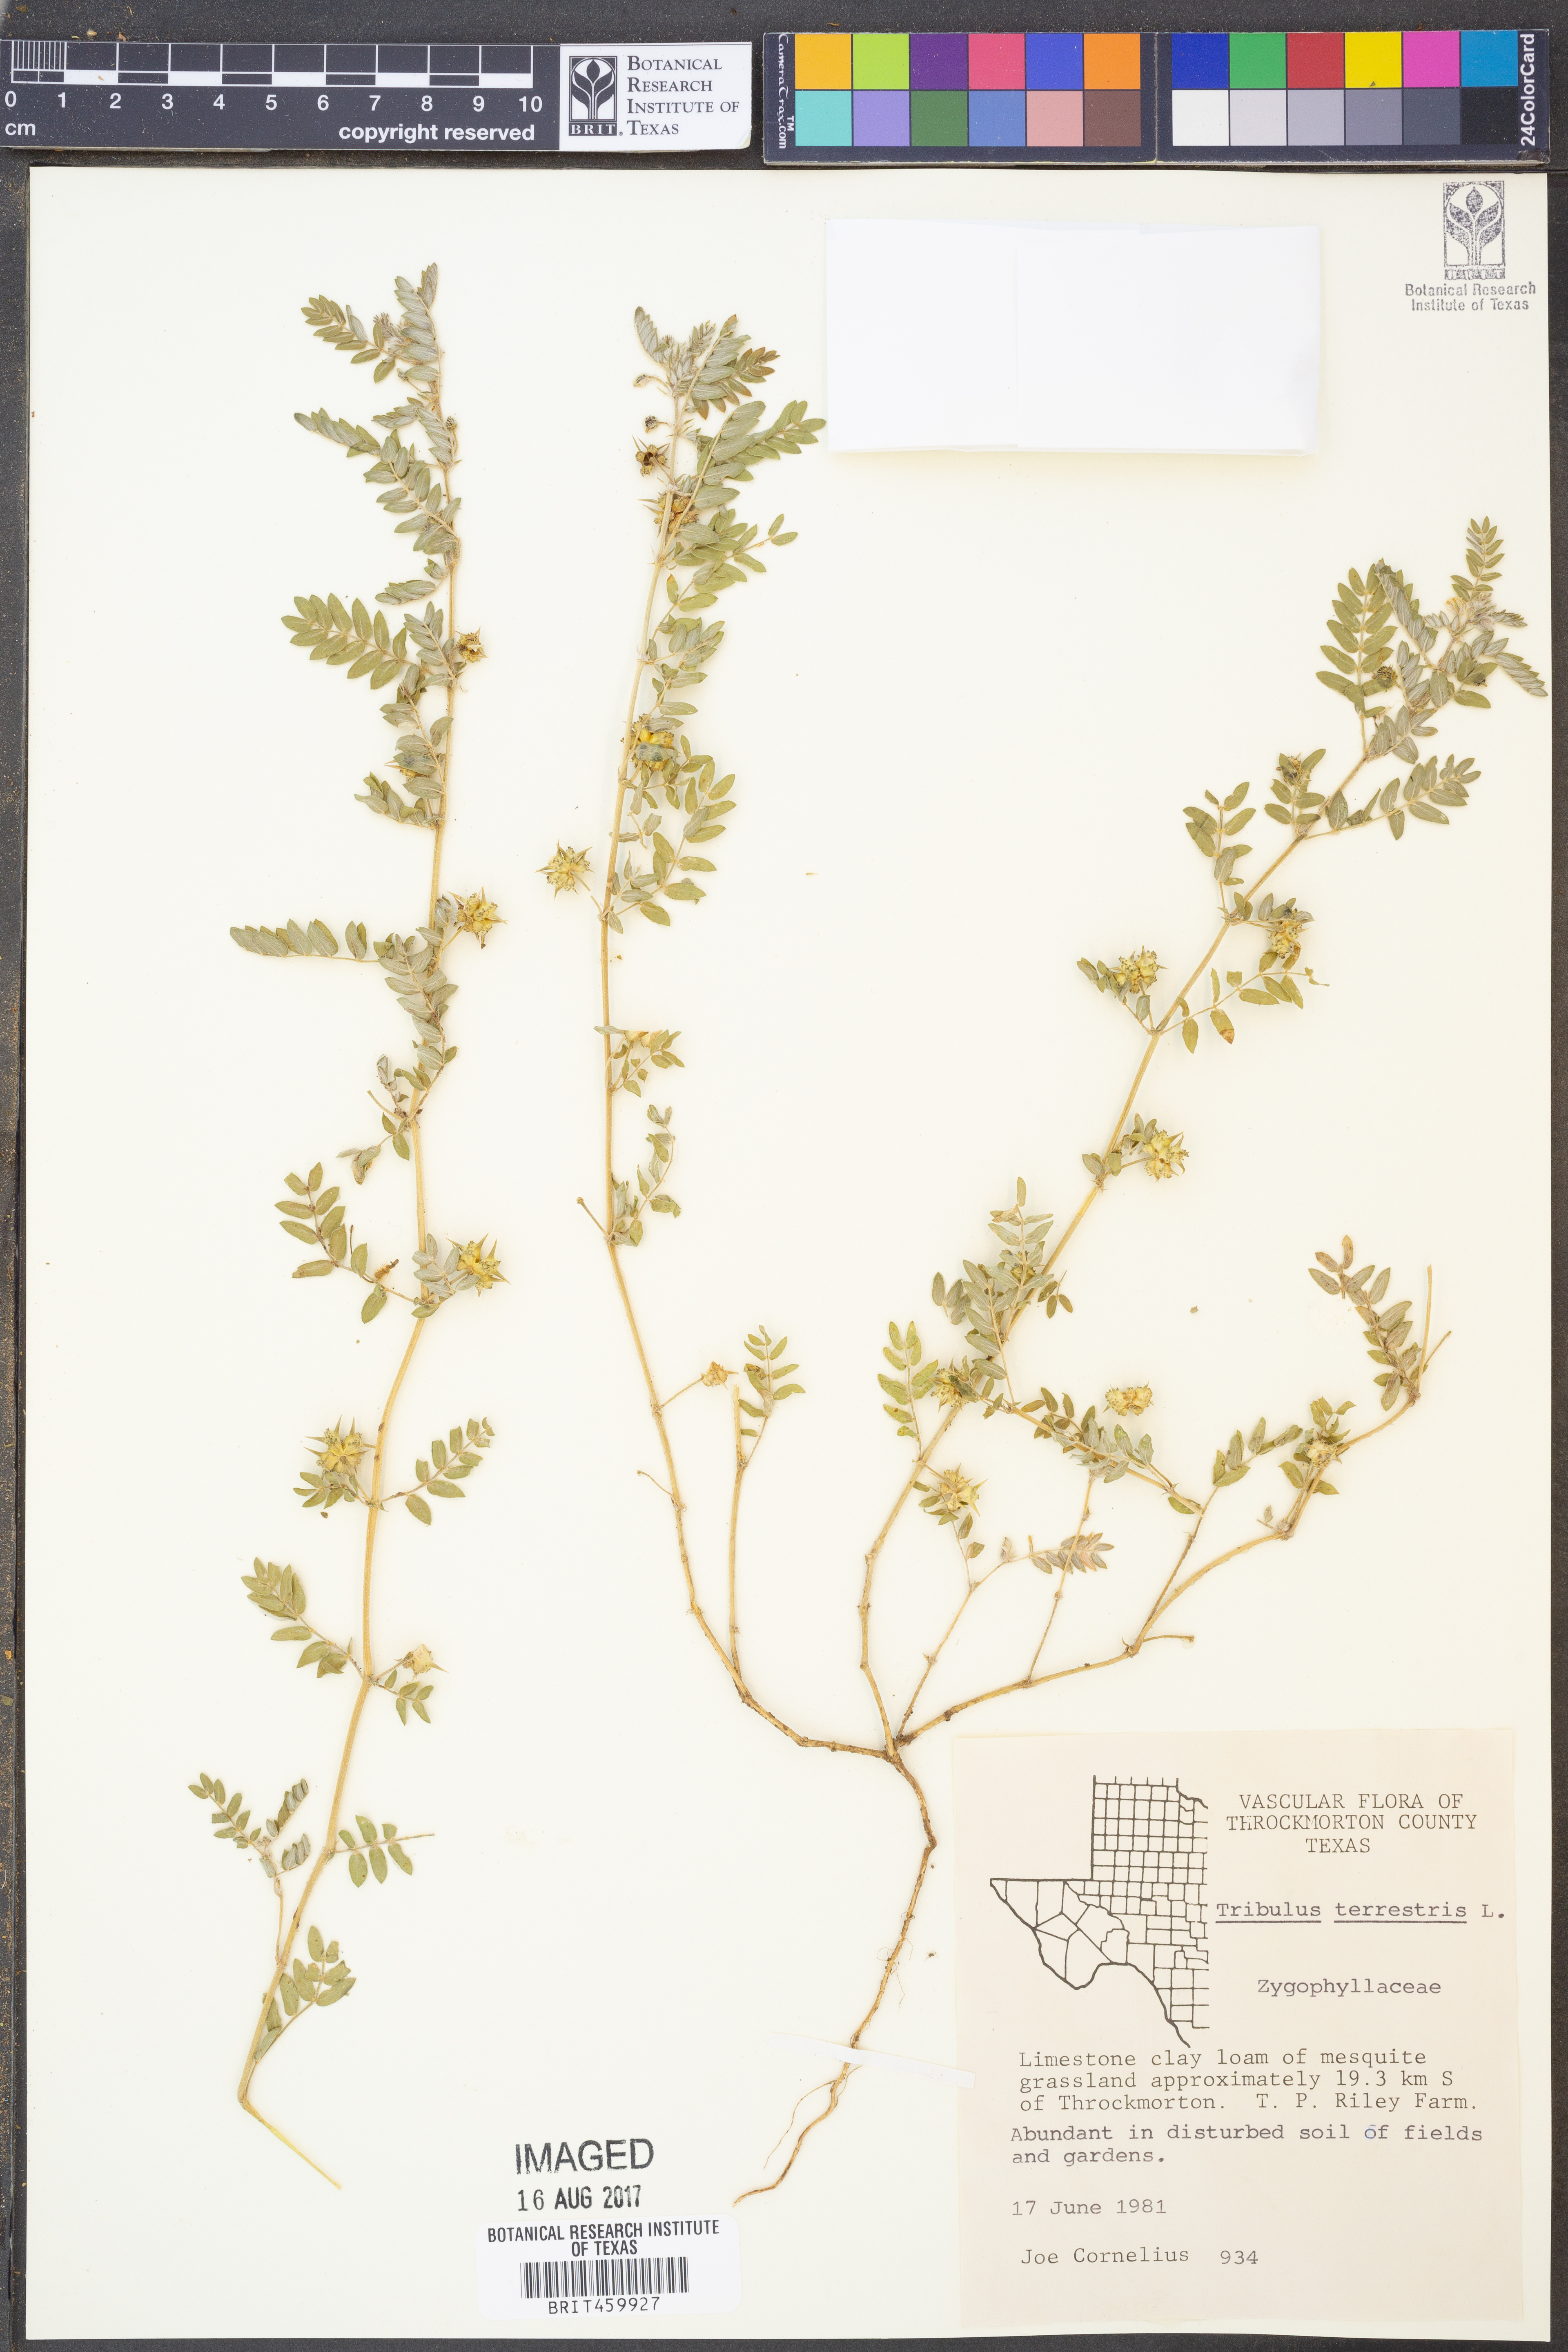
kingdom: Plantae
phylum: Tracheophyta
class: Magnoliopsida
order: Zygophyllales
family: Zygophyllaceae
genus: Tribulus
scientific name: Tribulus terrestris
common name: Puncturevine
